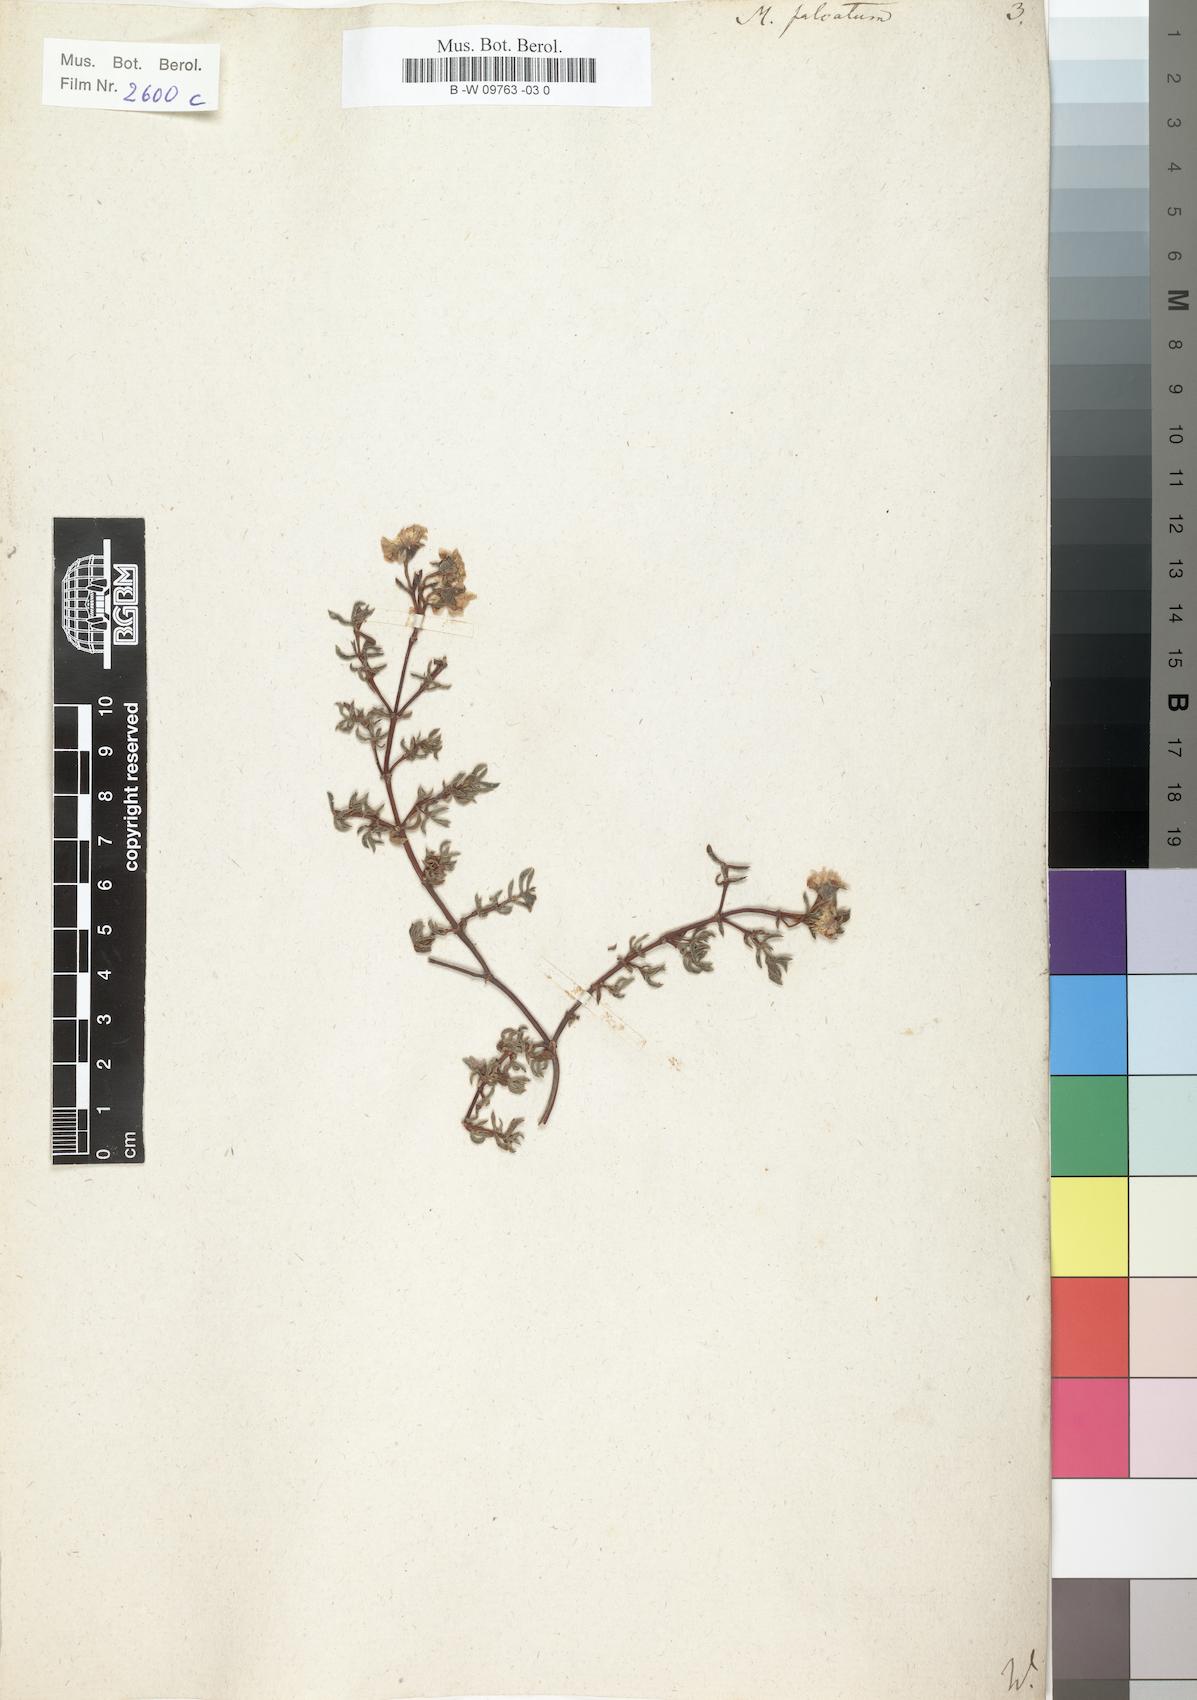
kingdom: Plantae
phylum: Tracheophyta
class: Magnoliopsida
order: Caryophyllales
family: Aizoaceae
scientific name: Aizoaceae
